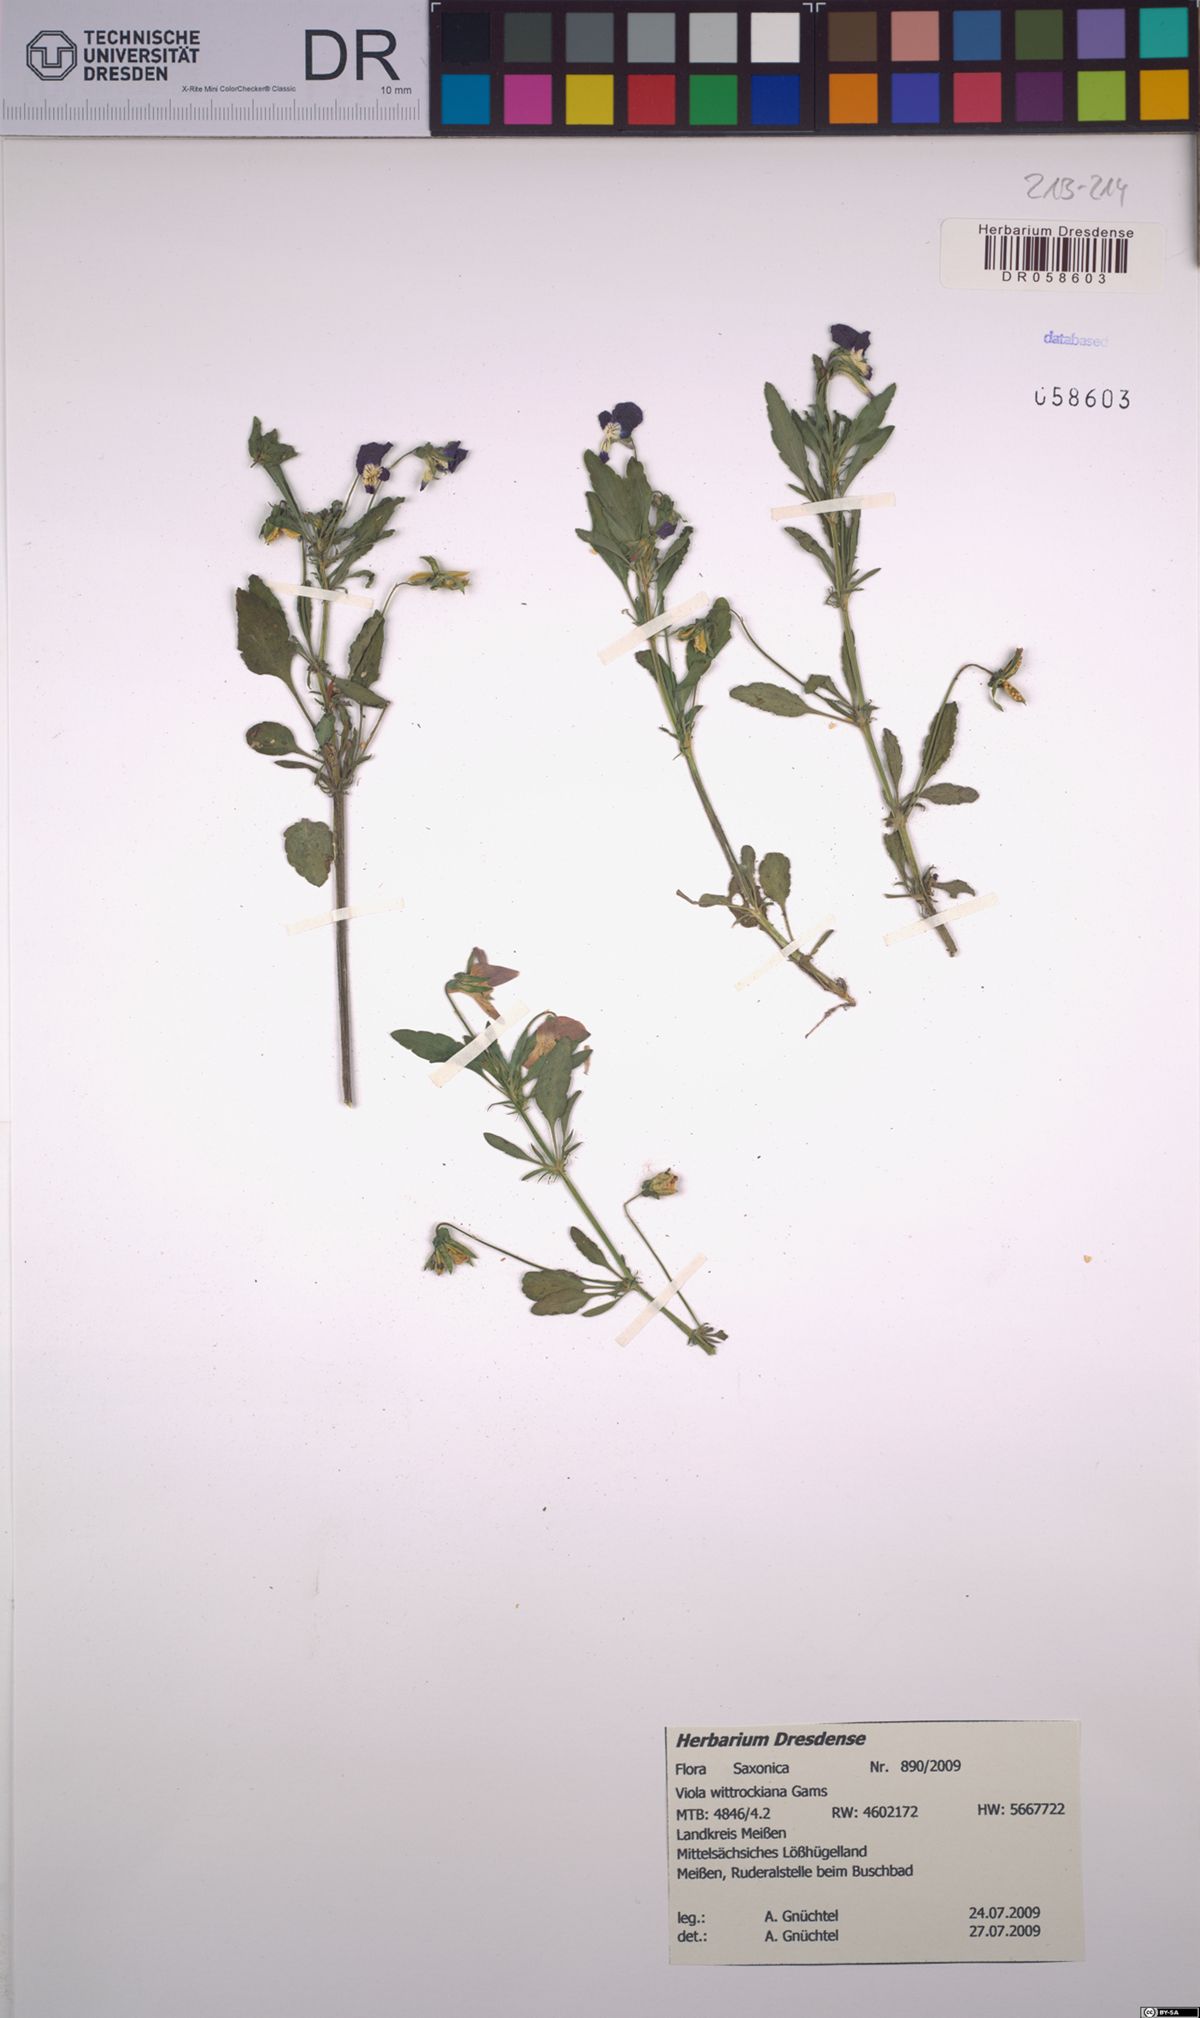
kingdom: Plantae
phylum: Tracheophyta
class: Magnoliopsida
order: Malpighiales
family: Violaceae
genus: Viola
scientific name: Viola wittrockiana
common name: Garden pansy
